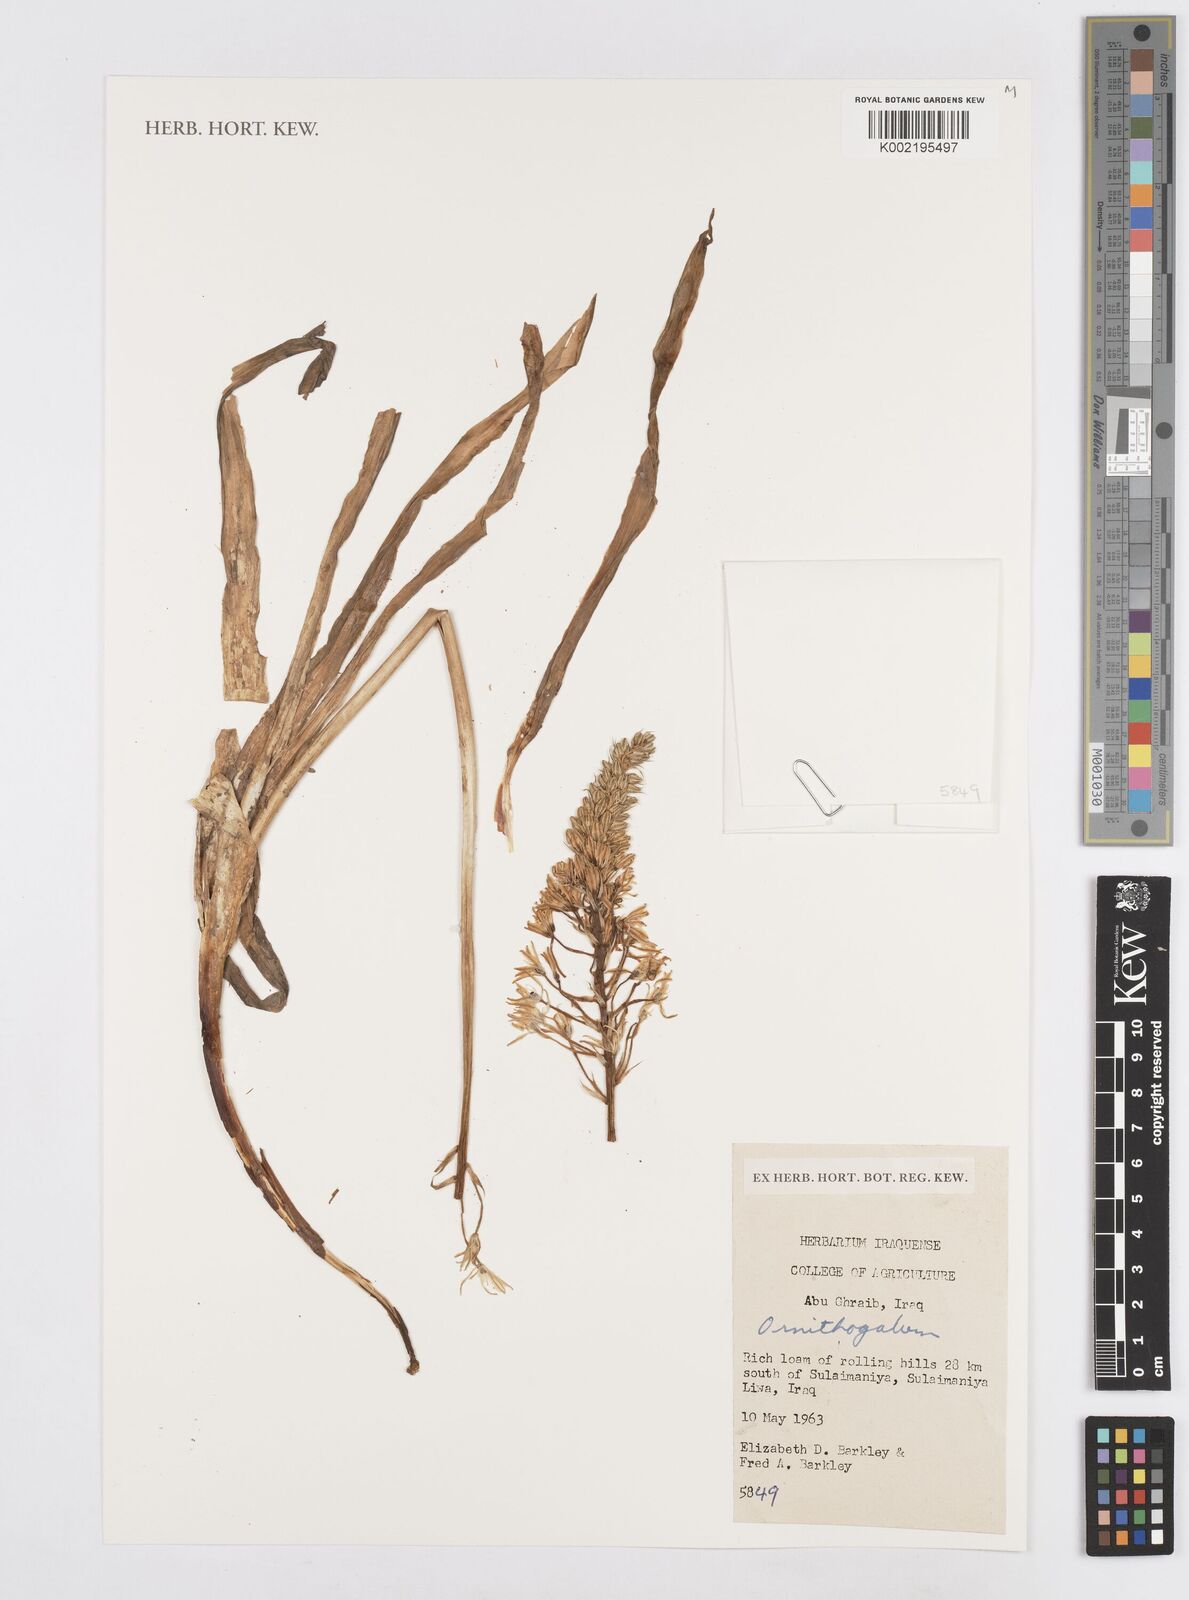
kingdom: Plantae
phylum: Tracheophyta
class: Liliopsida
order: Asparagales
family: Asparagaceae
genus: Ornithogalum
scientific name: Ornithogalum
